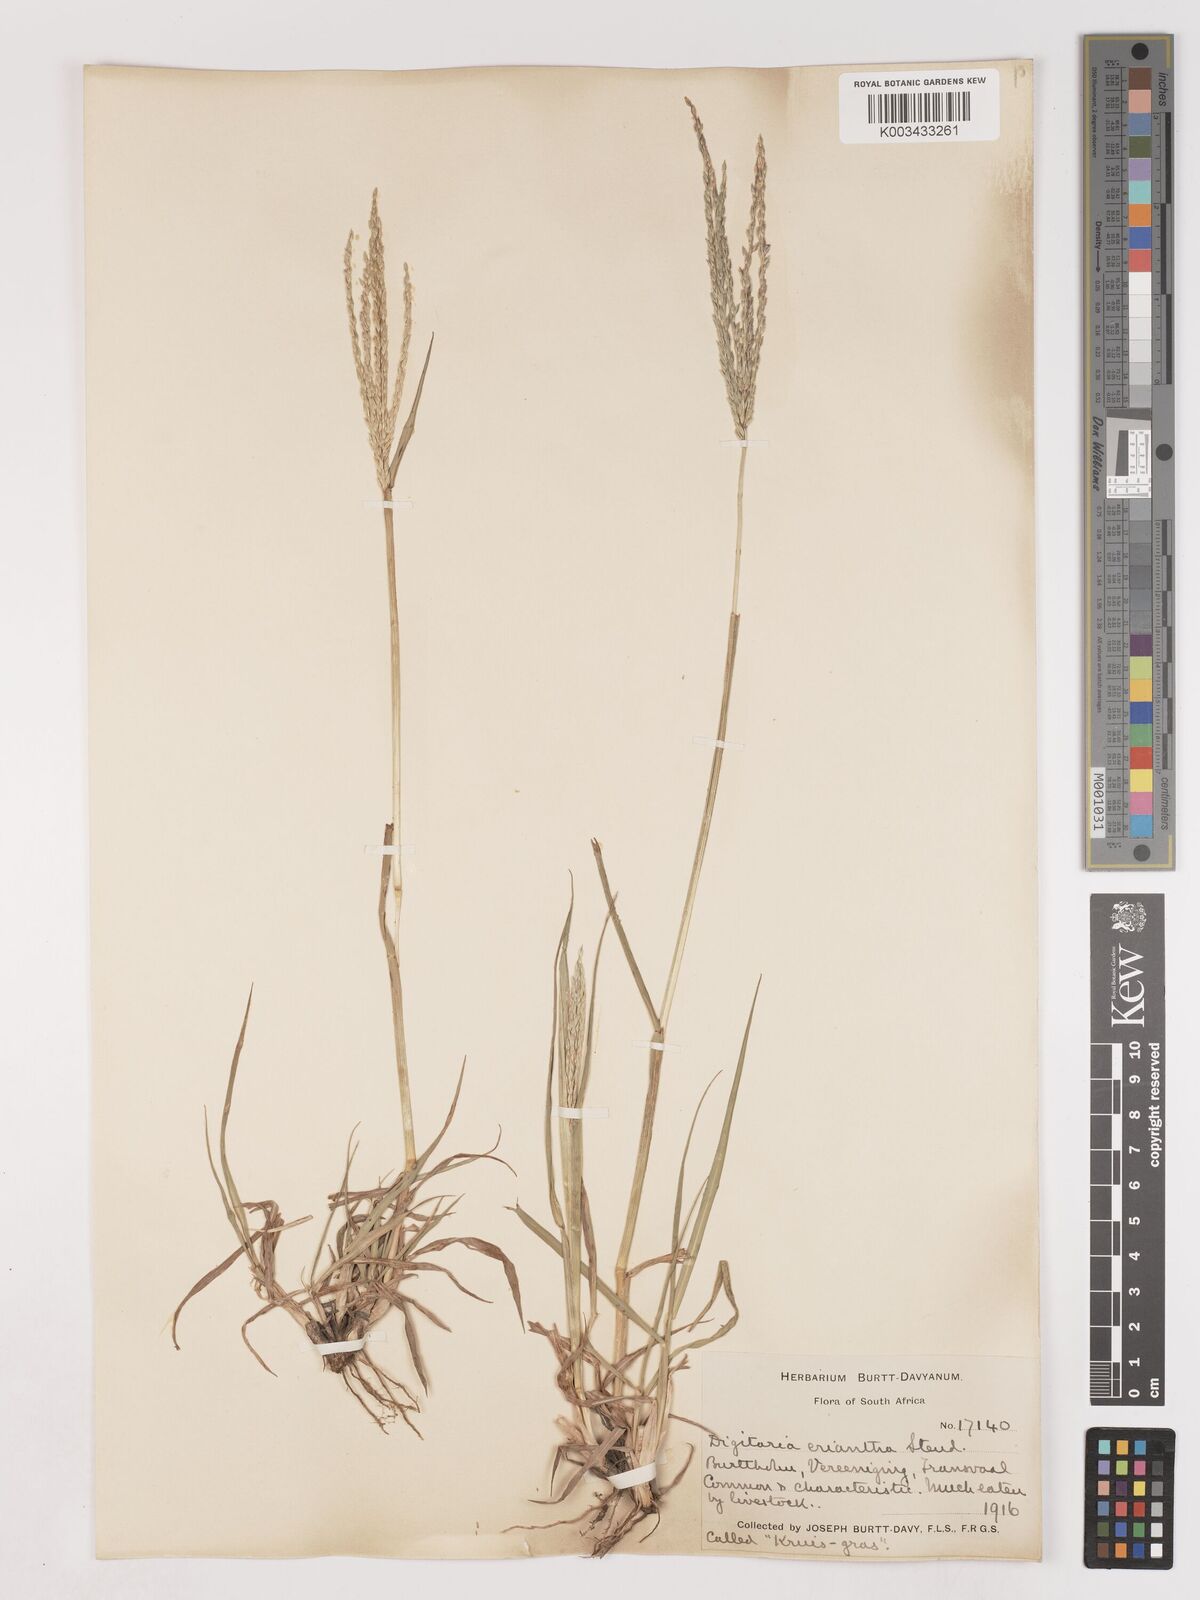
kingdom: Plantae
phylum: Tracheophyta
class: Liliopsida
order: Poales
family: Poaceae
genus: Digitaria
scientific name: Digitaria eriantha
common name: Digitgrass
